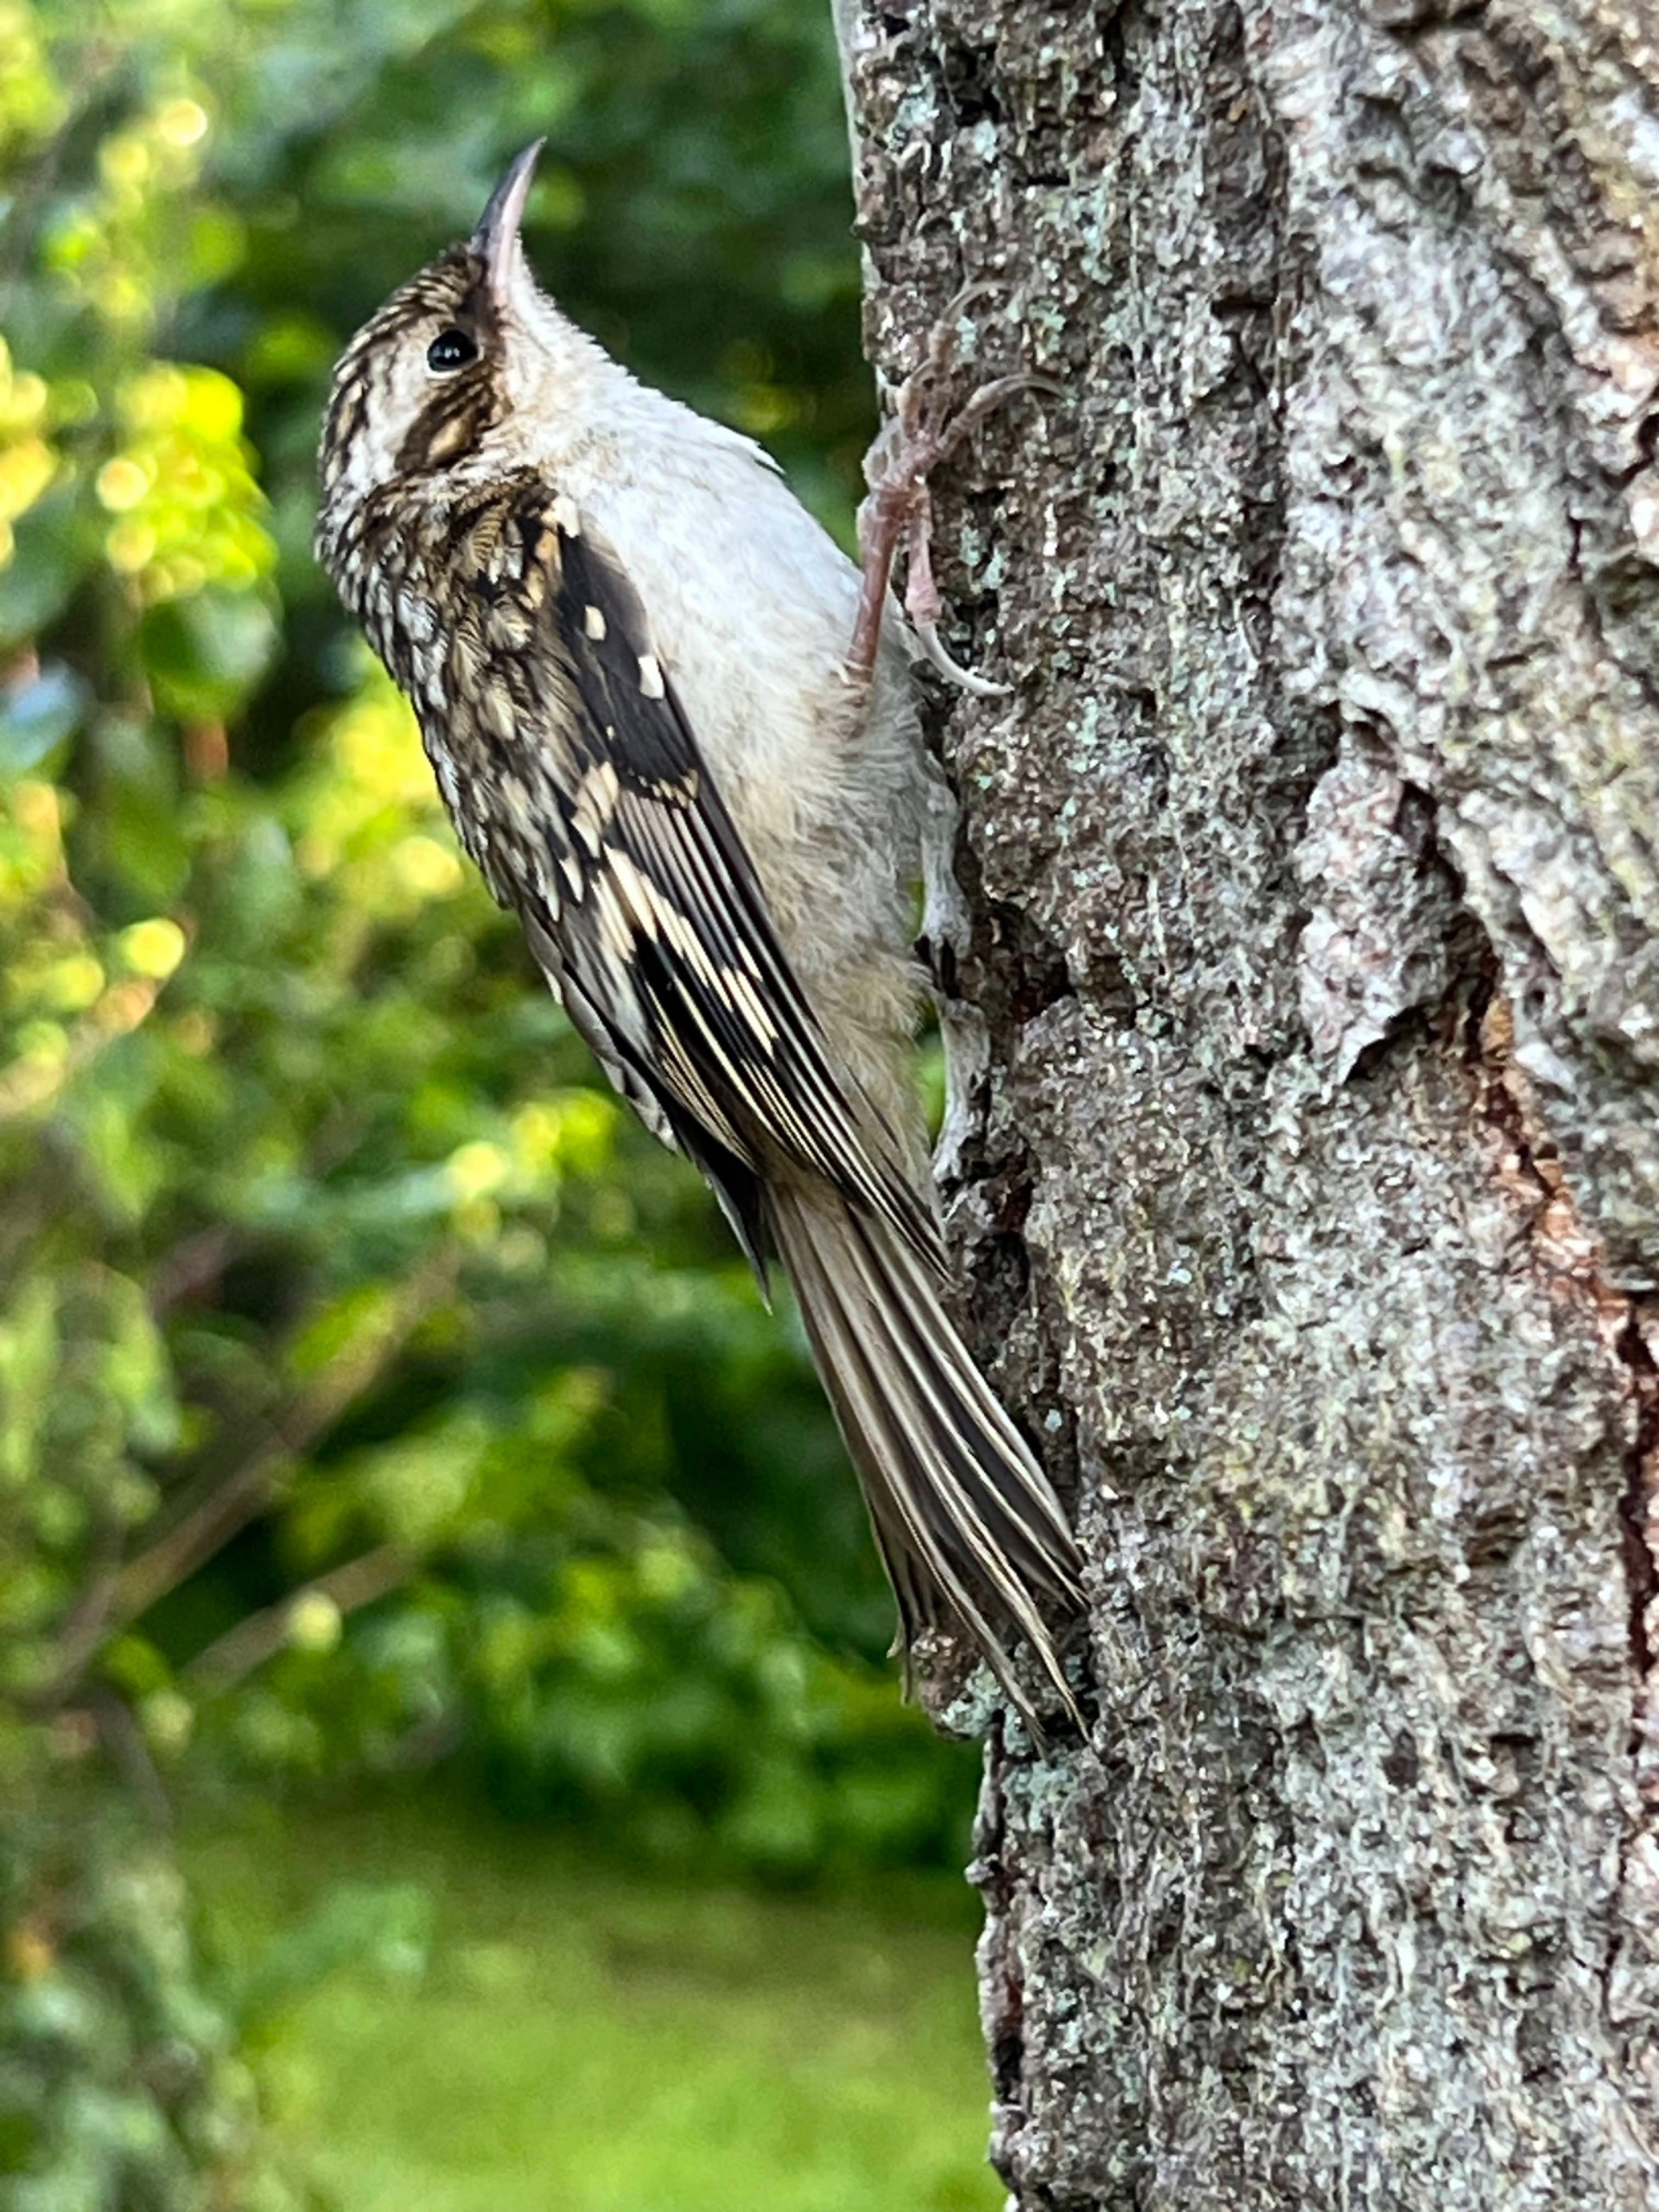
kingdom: Animalia
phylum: Chordata
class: Aves
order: Passeriformes
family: Certhiidae
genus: Certhia
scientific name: Certhia familiaris
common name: Træløber
